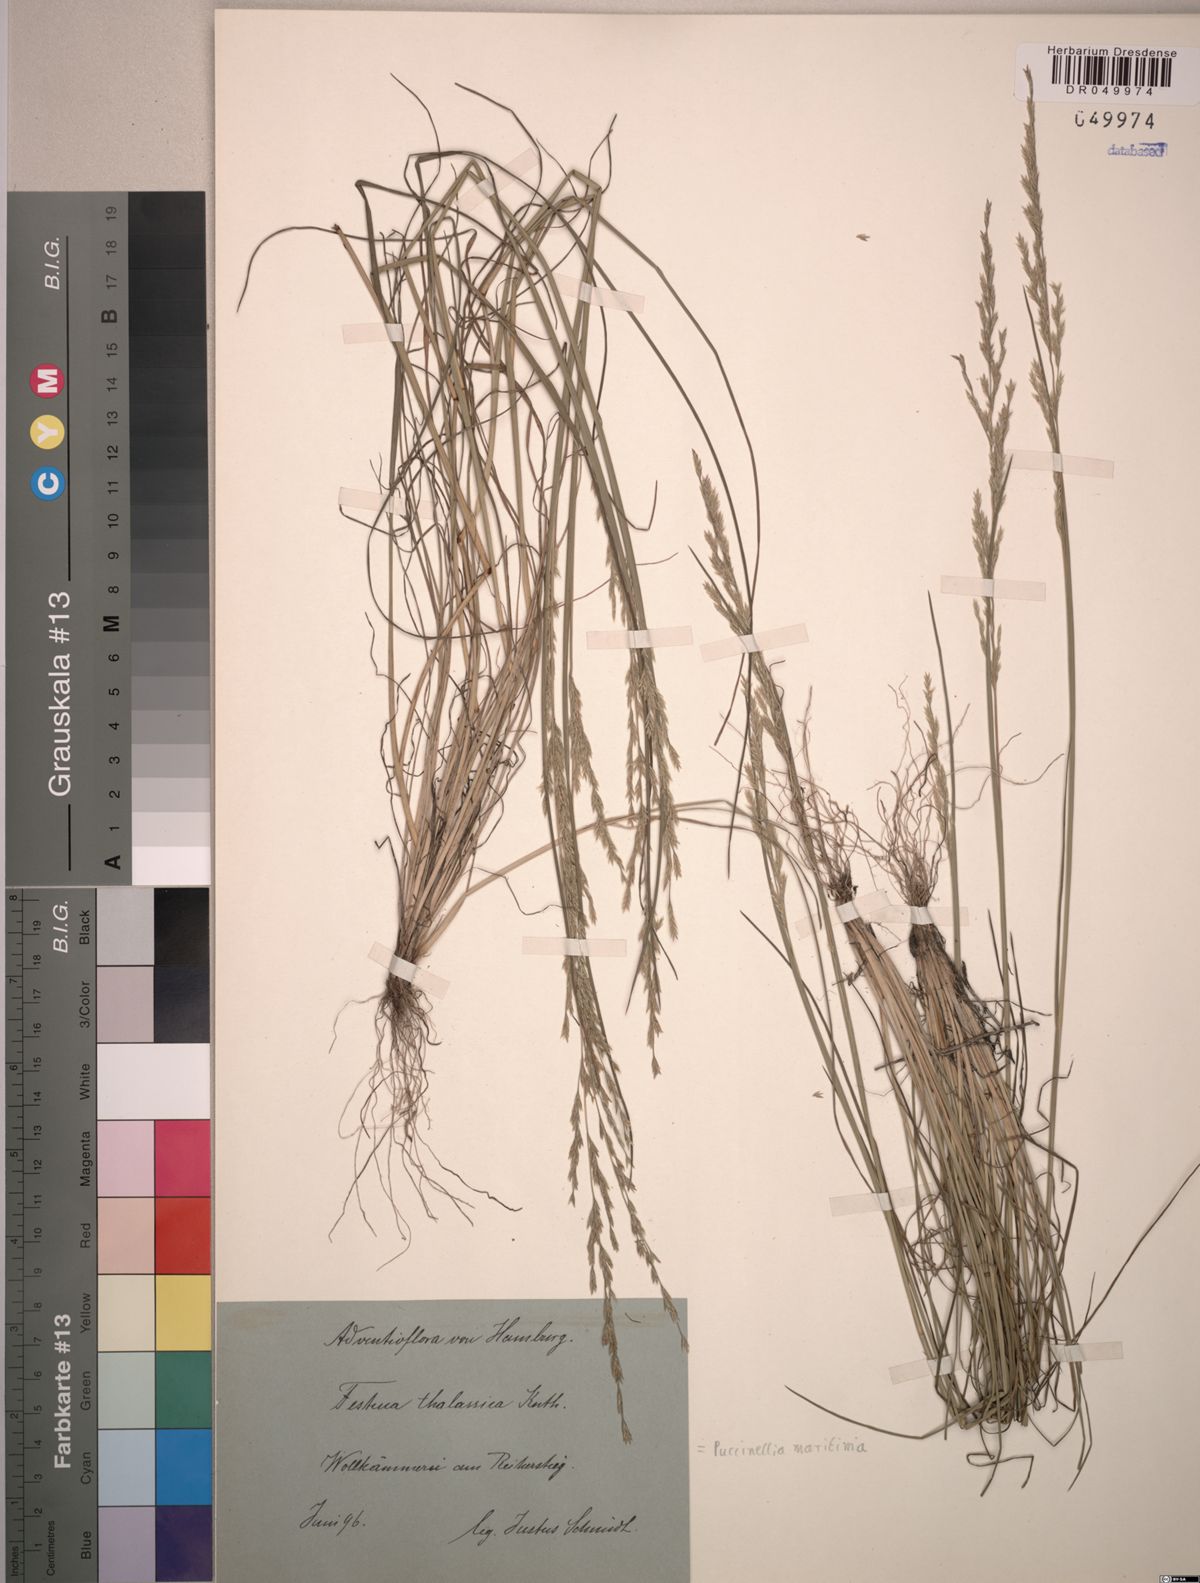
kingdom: Plantae
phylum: Tracheophyta
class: Liliopsida
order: Poales
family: Poaceae
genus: Puccinellia
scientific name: Puccinellia maritima
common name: Common saltmarsh grass
